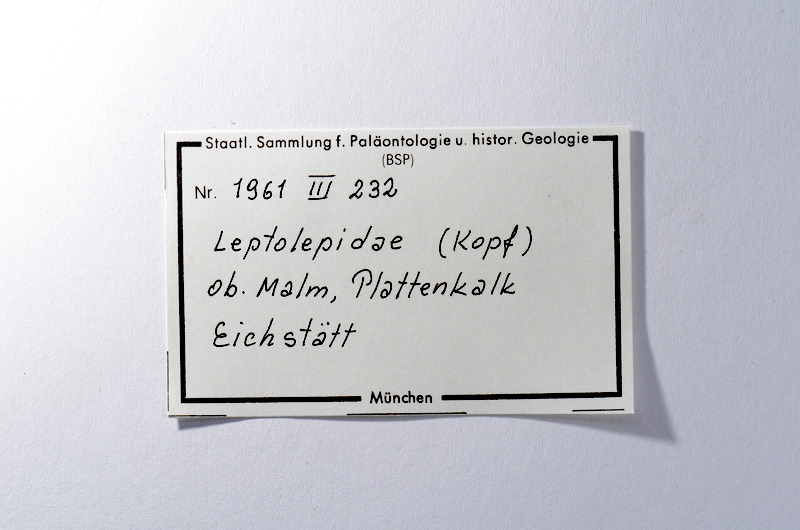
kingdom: Animalia
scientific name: Animalia
